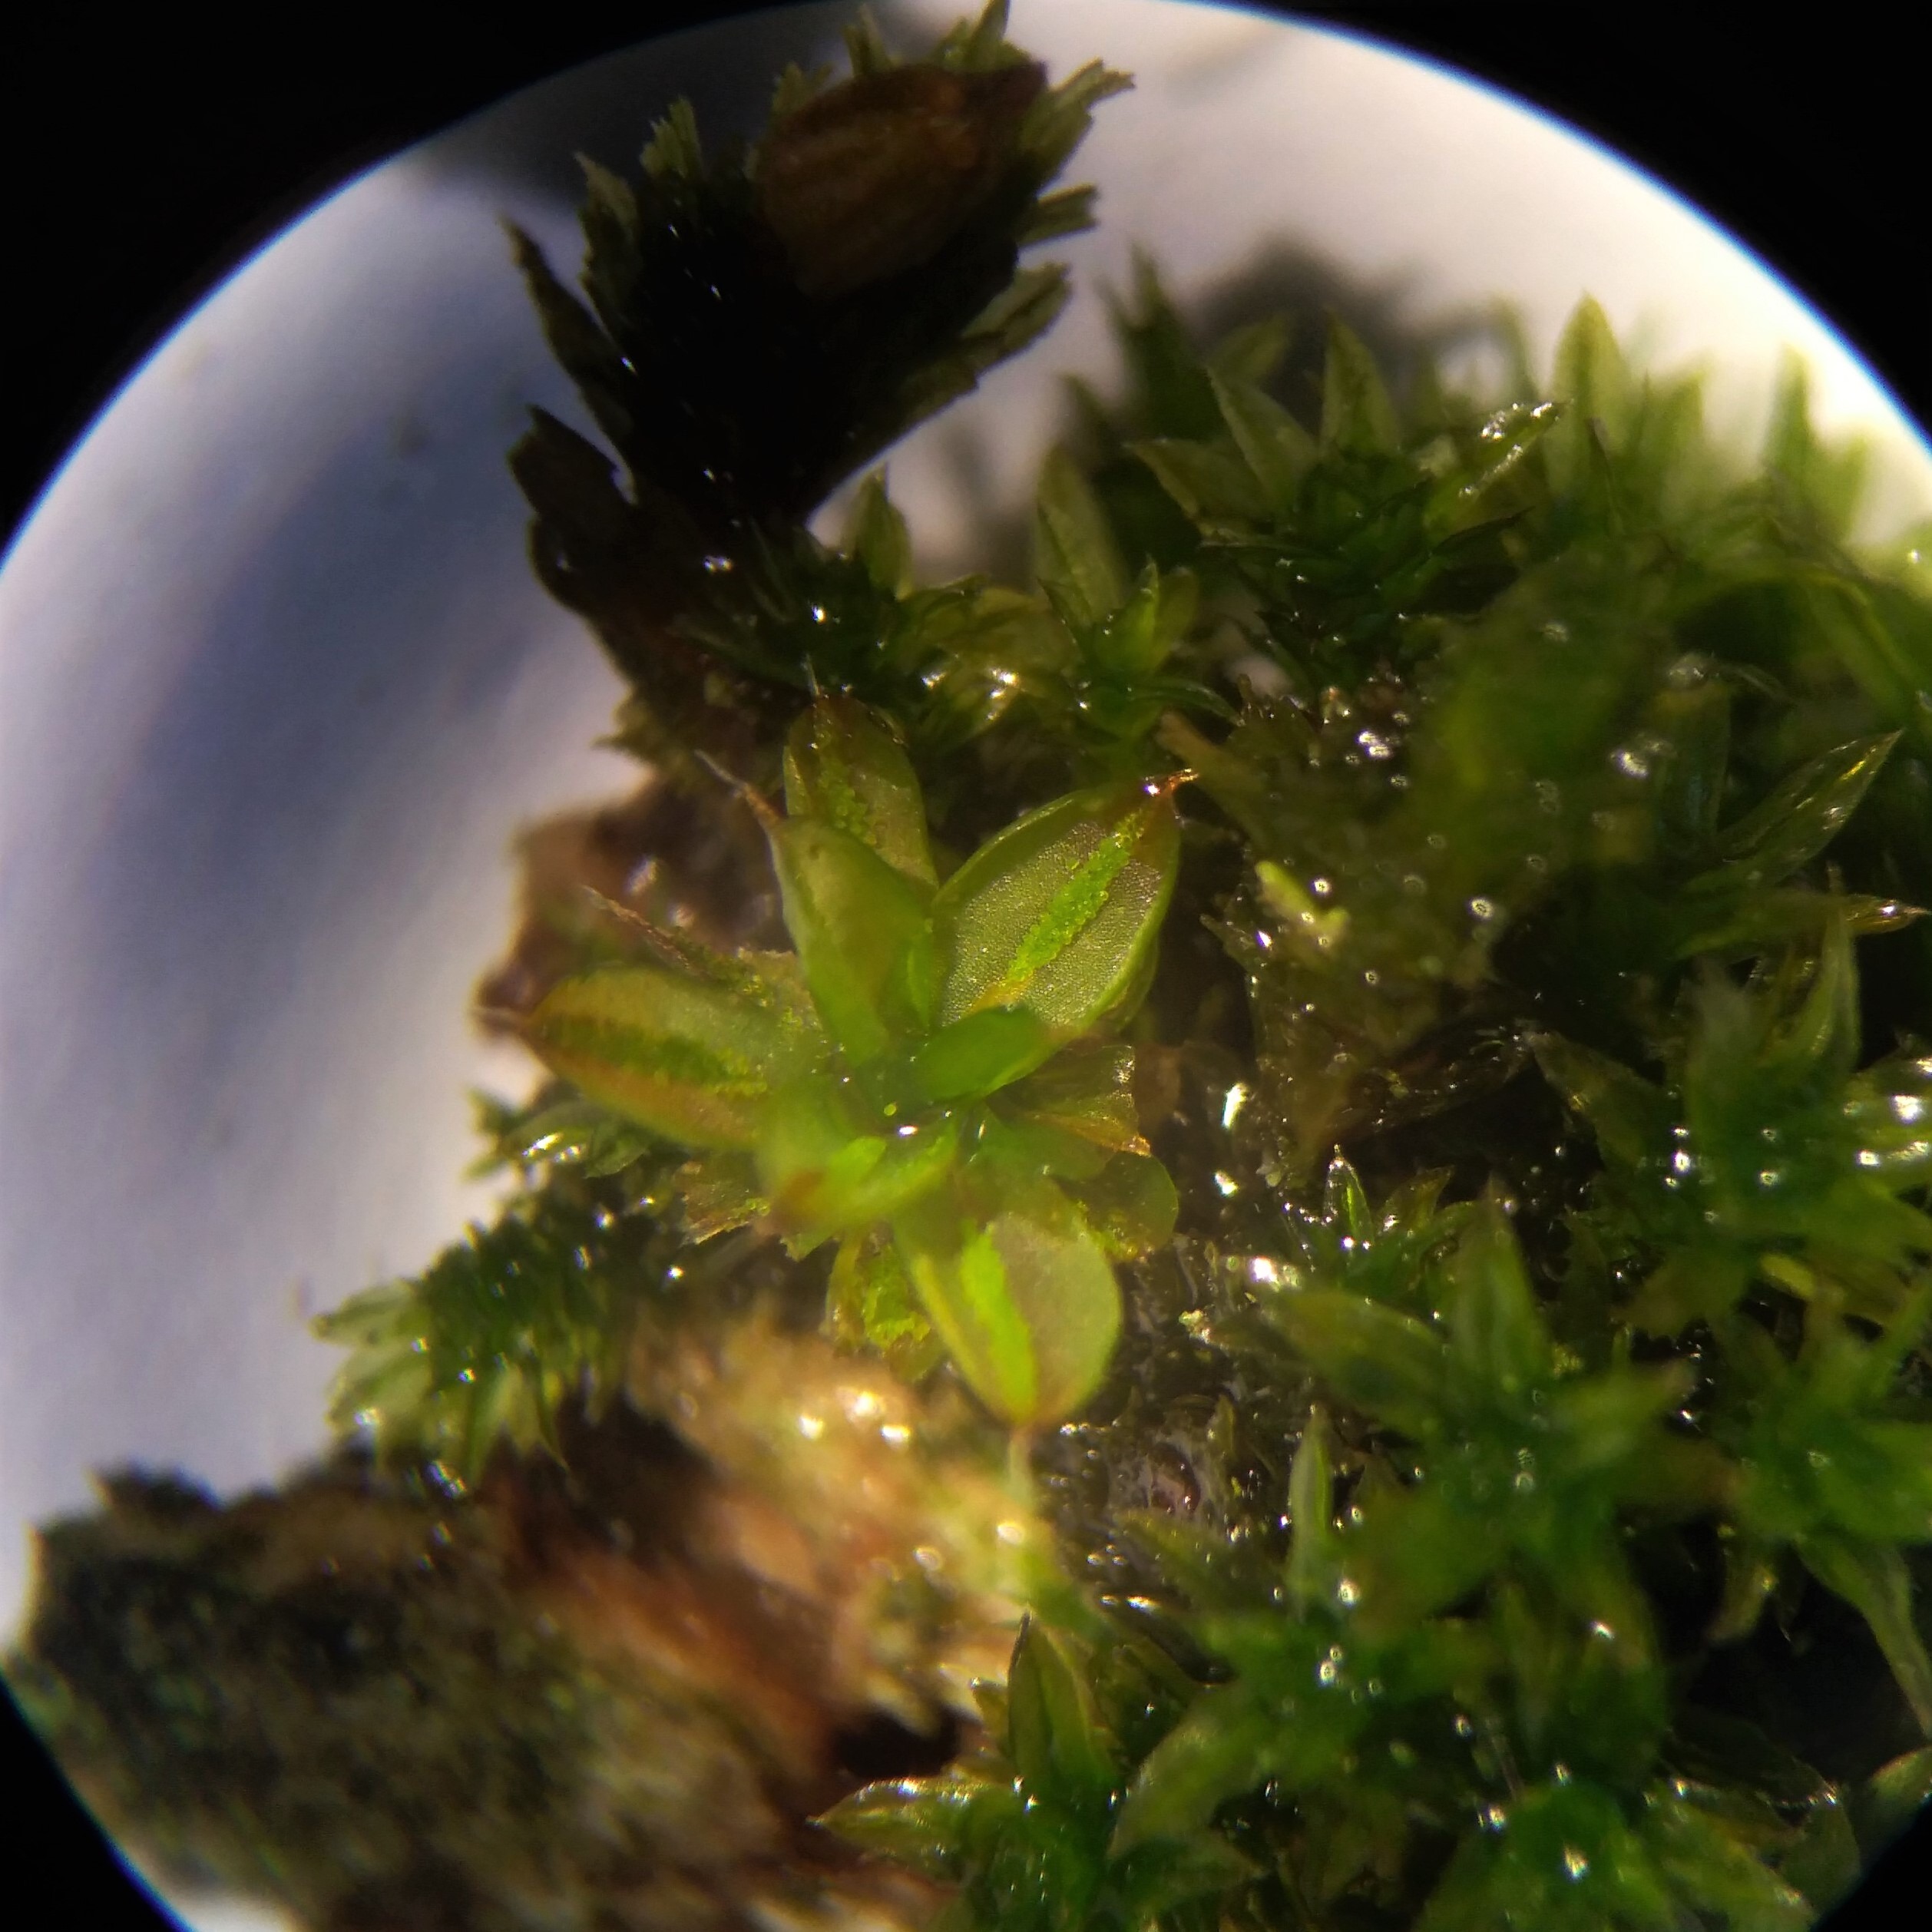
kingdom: Plantae
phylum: Bryophyta
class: Bryopsida
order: Pottiales
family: Pottiaceae
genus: Syntrichia
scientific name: Syntrichia papillosa
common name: Bark-hårstjerne
